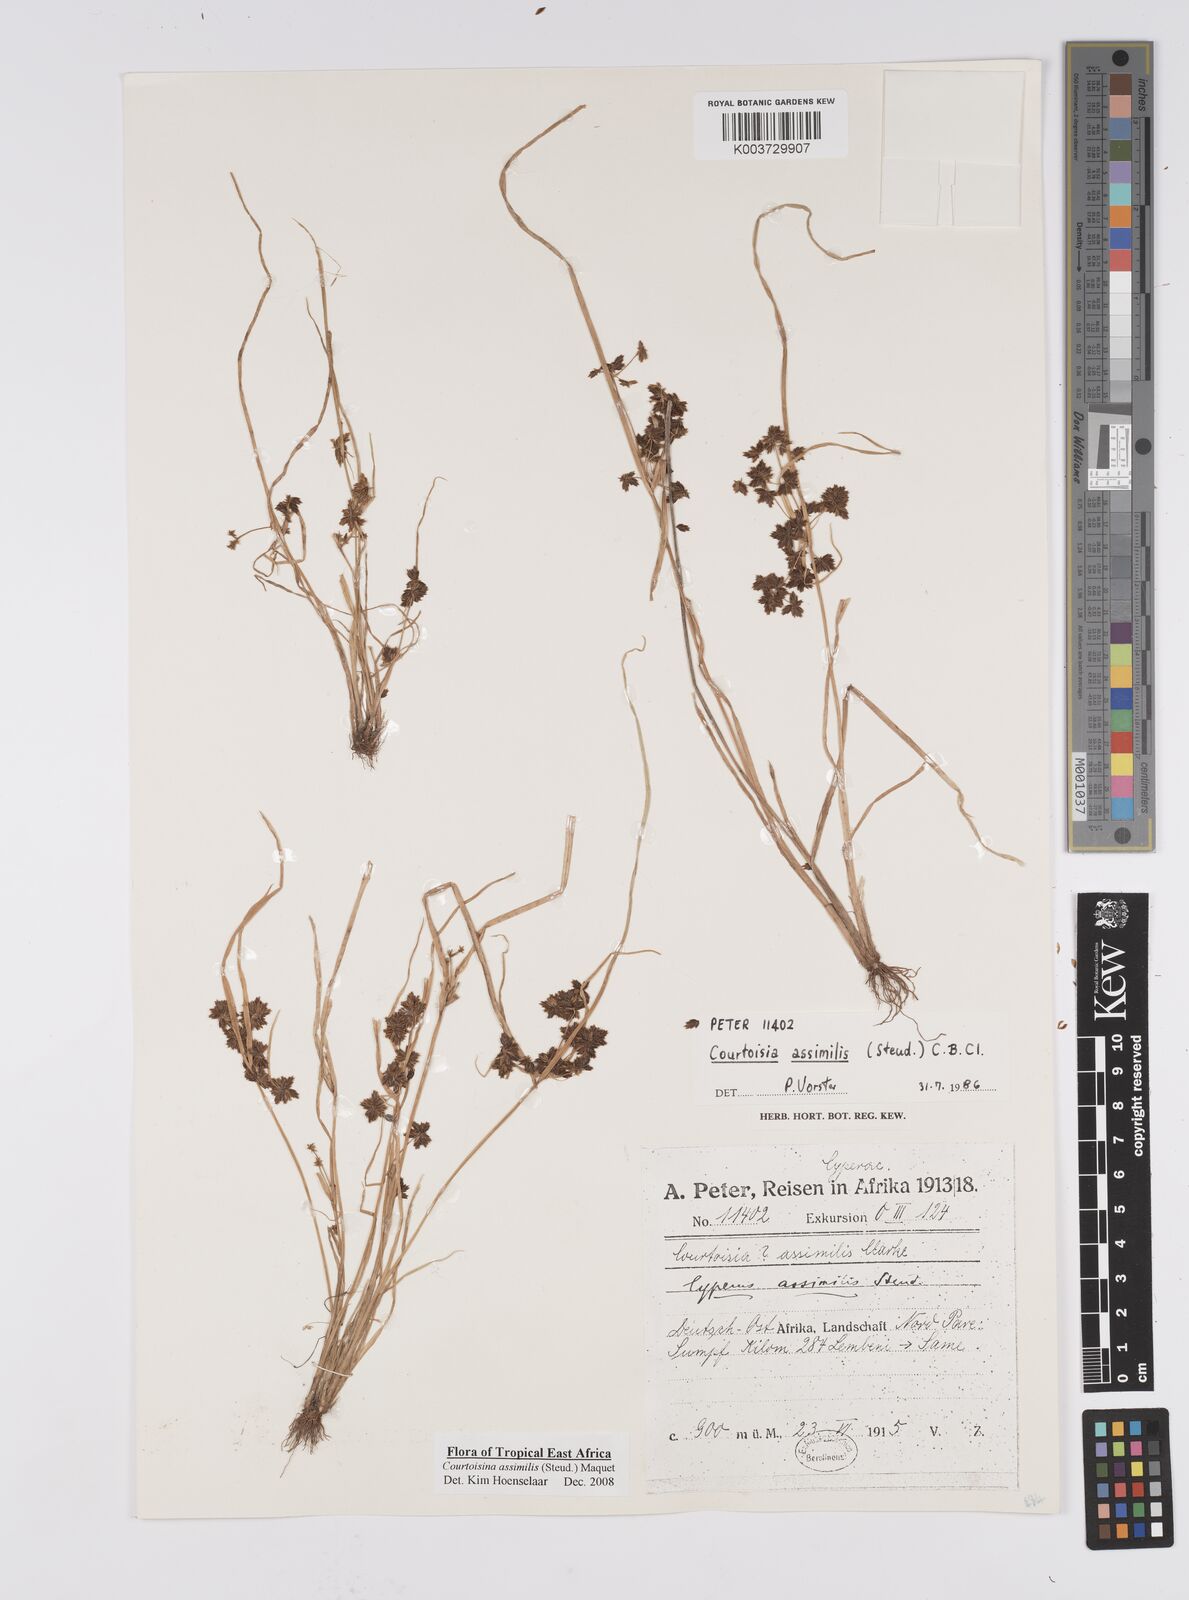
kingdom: Plantae
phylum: Tracheophyta
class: Liliopsida
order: Poales
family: Cyperaceae
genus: Cyperus
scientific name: Cyperus assimilis
